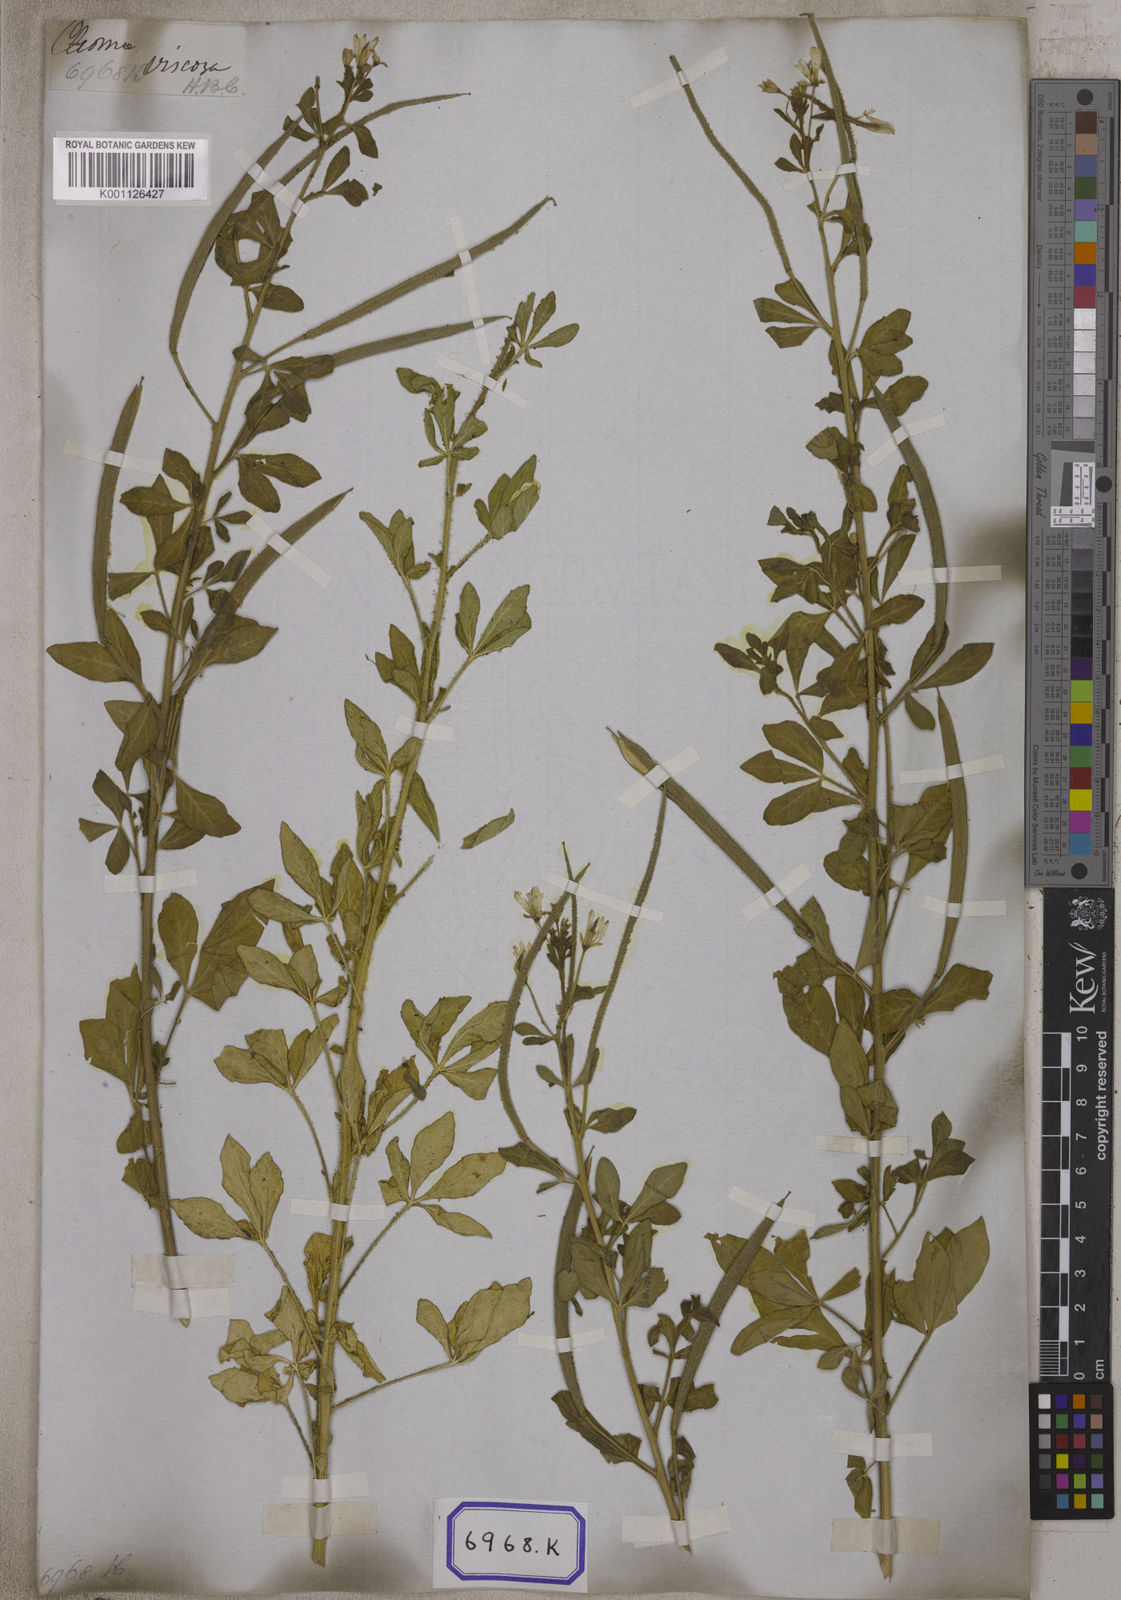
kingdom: Plantae
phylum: Tracheophyta
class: Magnoliopsida
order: Brassicales
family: Cleomaceae
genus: Arivela
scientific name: Arivela viscosa
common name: Asian spiderflower
